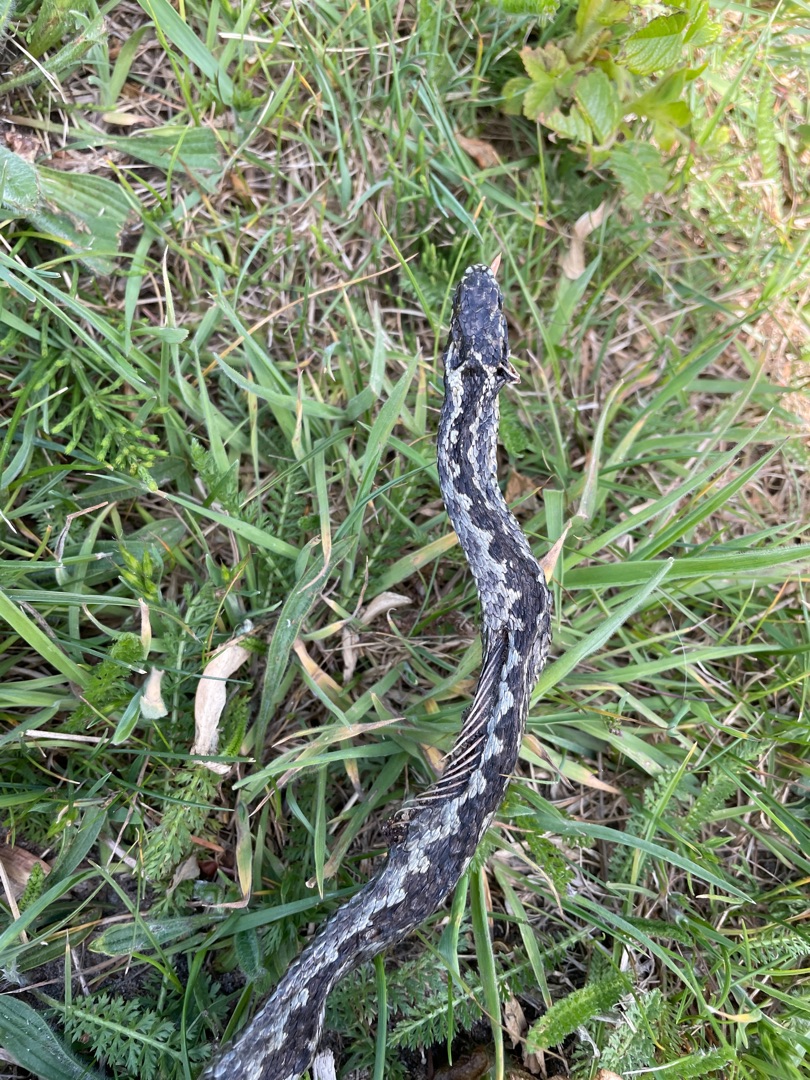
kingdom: Animalia
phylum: Chordata
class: Squamata
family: Viperidae
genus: Vipera
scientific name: Vipera berus
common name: Hugorm
